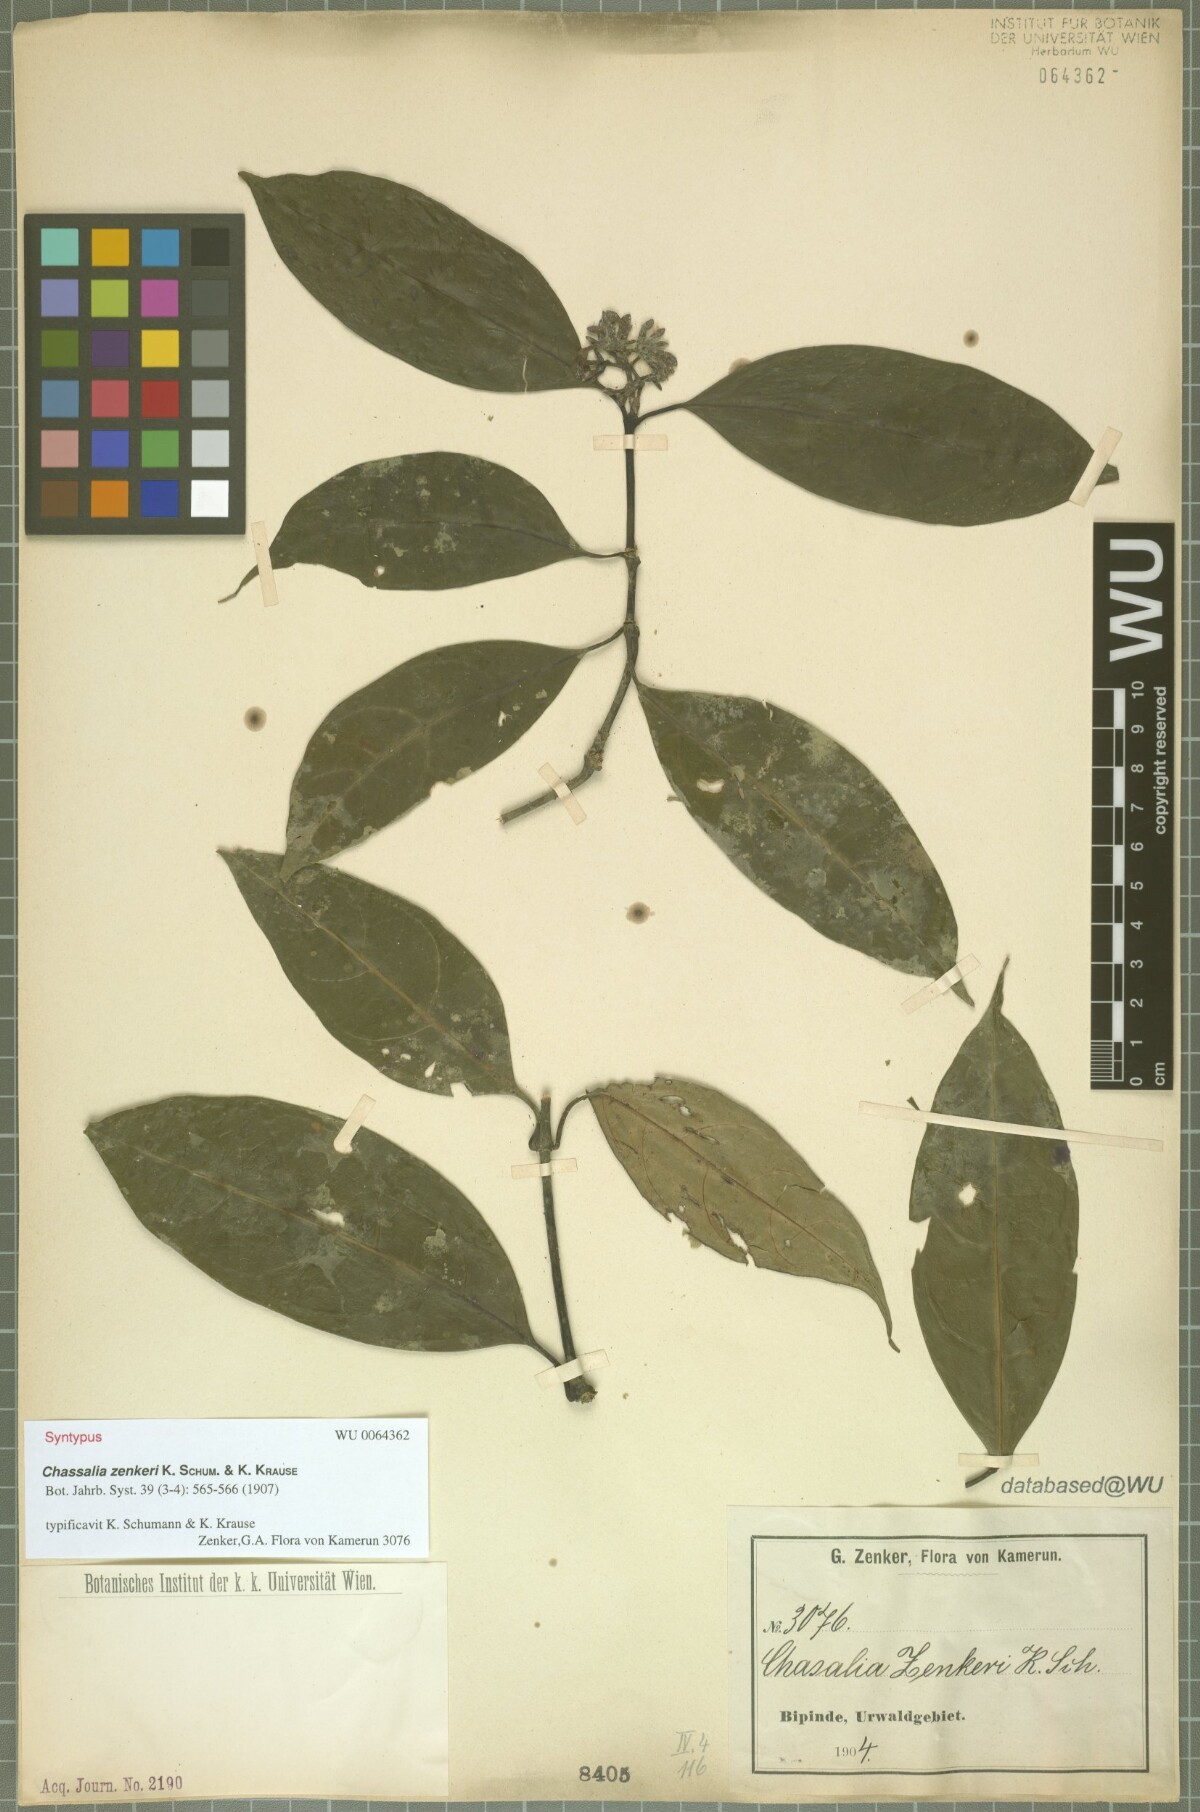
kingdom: Plantae
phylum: Tracheophyta
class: Magnoliopsida
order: Gentianales
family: Rubiaceae
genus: Chassalia
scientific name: Chassalia zenkeri
